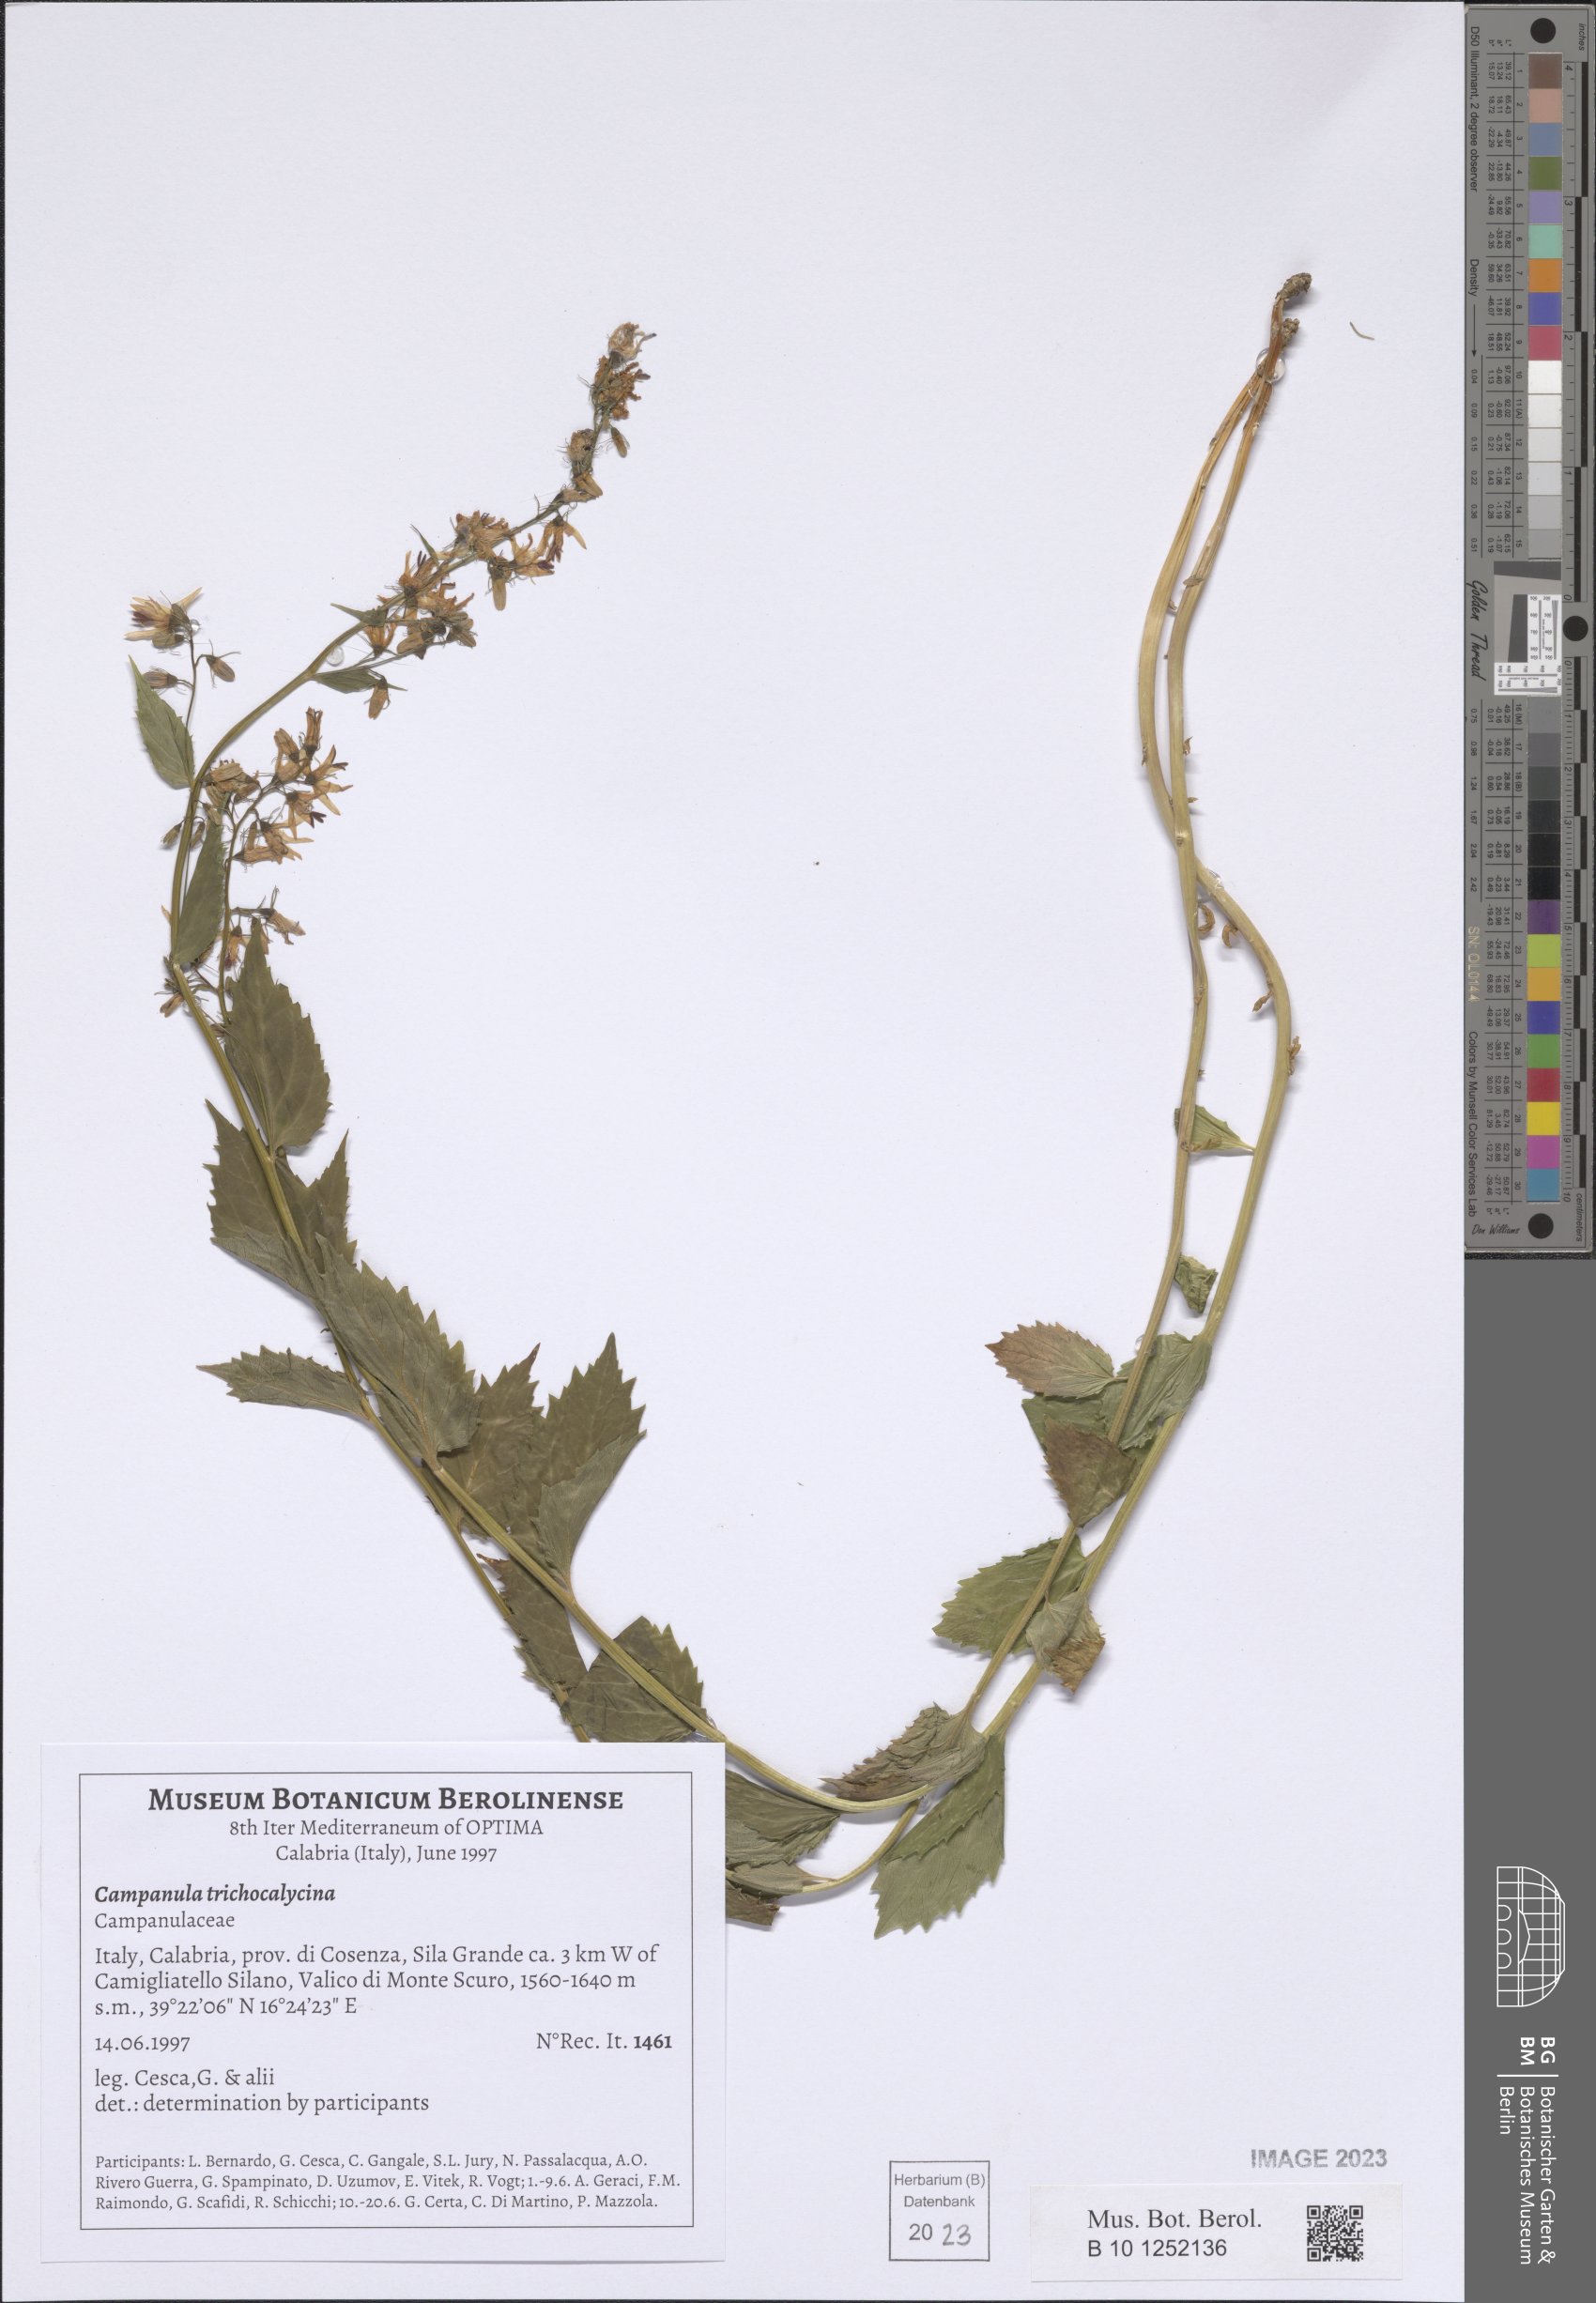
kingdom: Plantae
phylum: Tracheophyta
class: Magnoliopsida
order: Asterales
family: Campanulaceae
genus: Campanula
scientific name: Campanula trichocalycina
